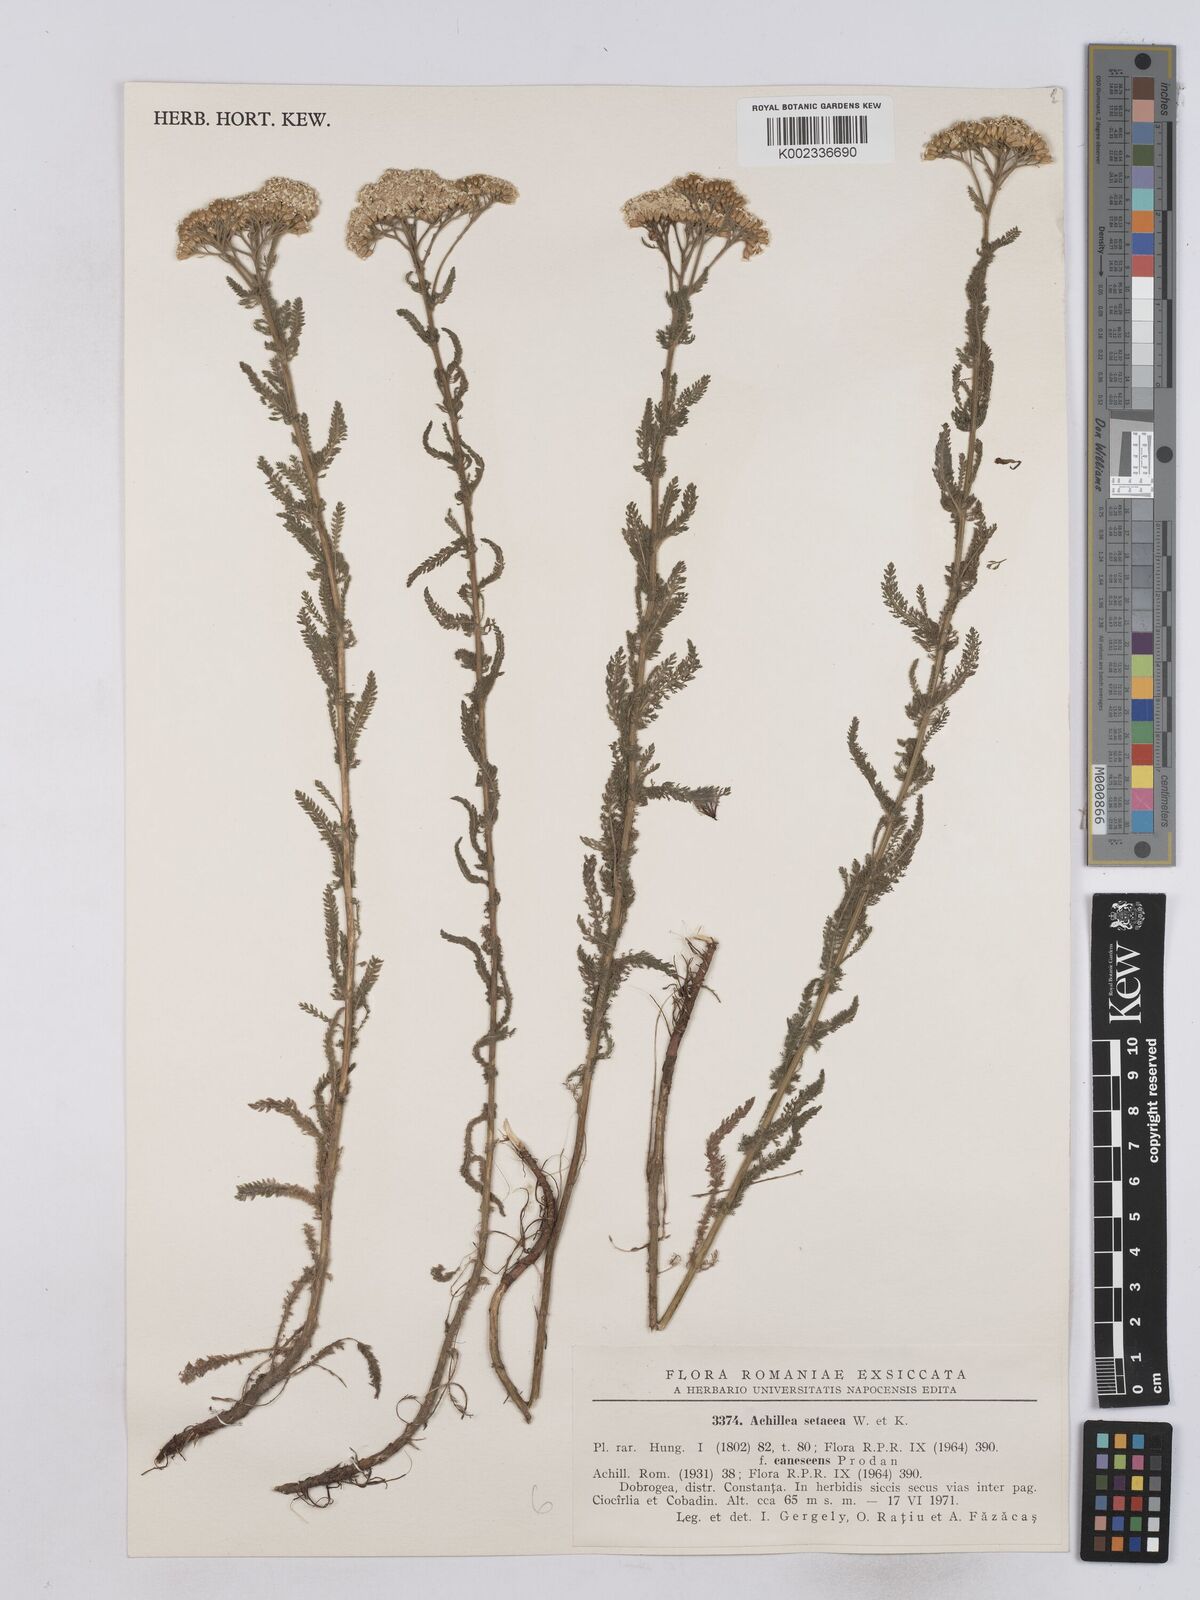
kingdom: Plantae
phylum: Tracheophyta
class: Magnoliopsida
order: Asterales
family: Asteraceae
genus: Achillea
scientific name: Achillea setacea
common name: Bristly yarrow
